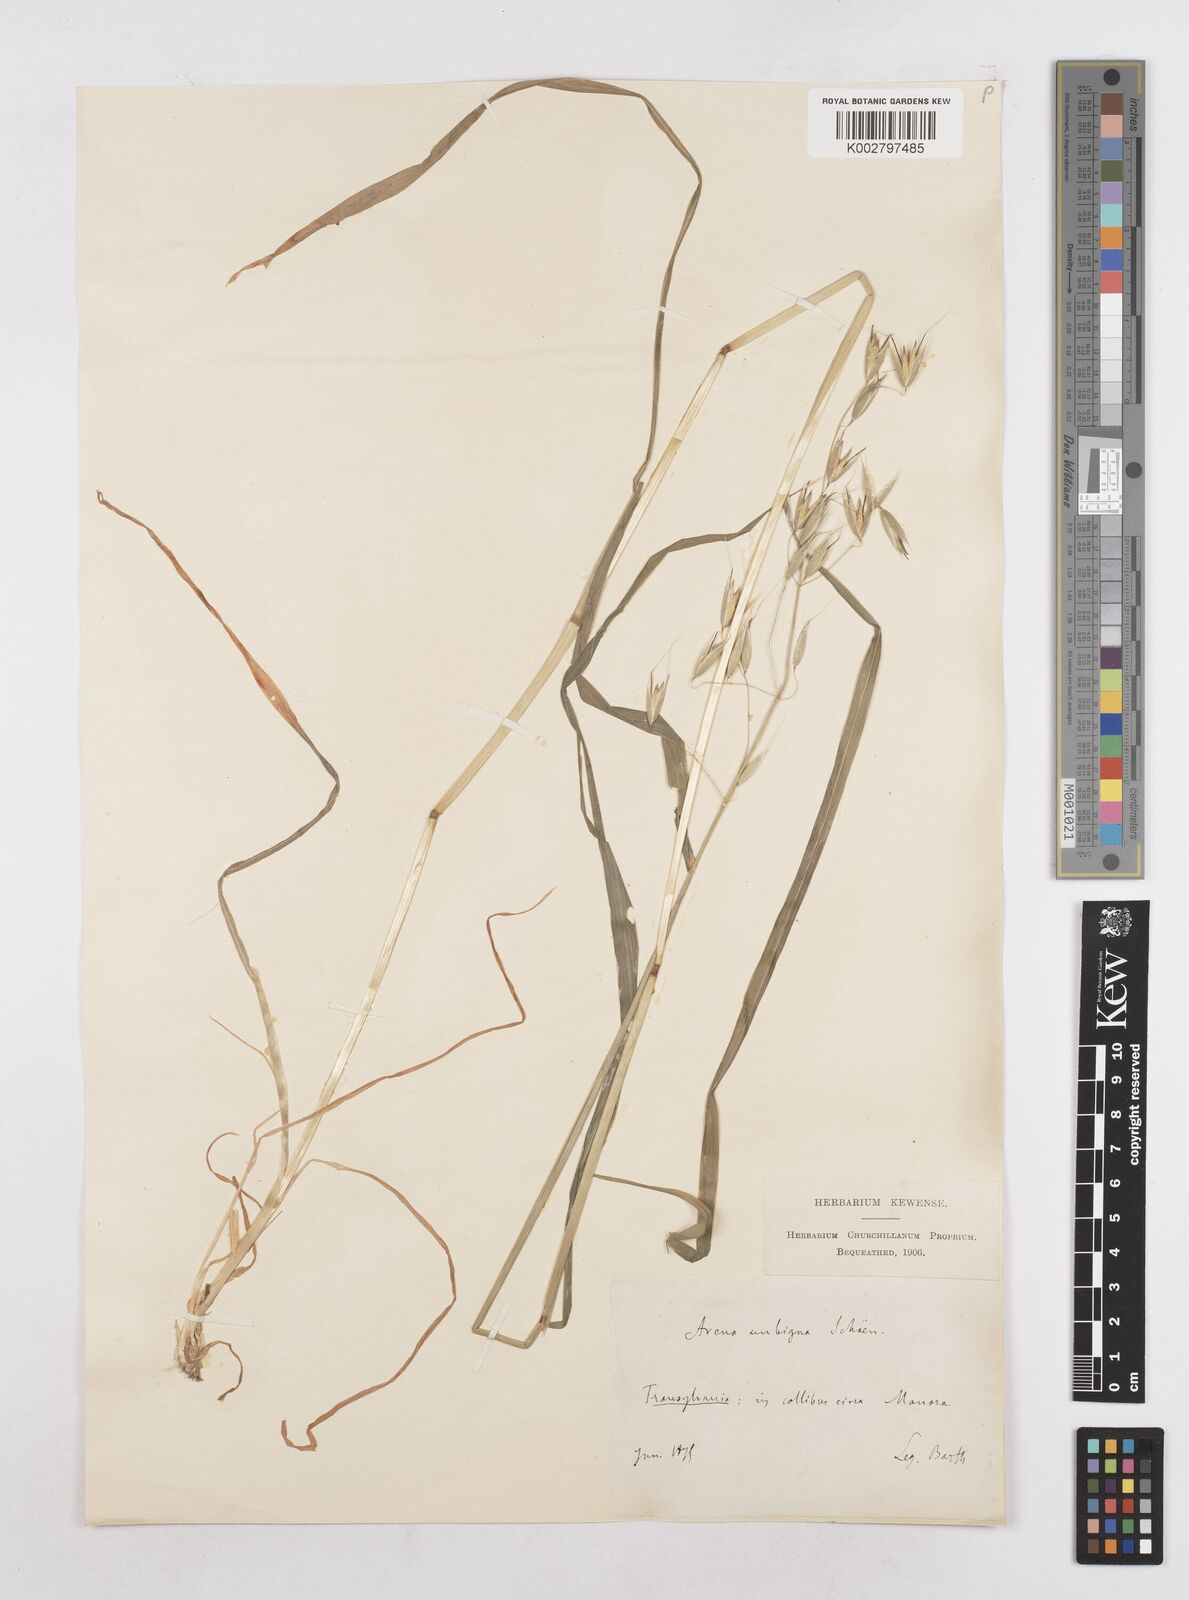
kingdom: Plantae
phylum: Tracheophyta
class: Liliopsida
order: Poales
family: Poaceae
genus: Avena
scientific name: Avena fatua
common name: Wild oat
